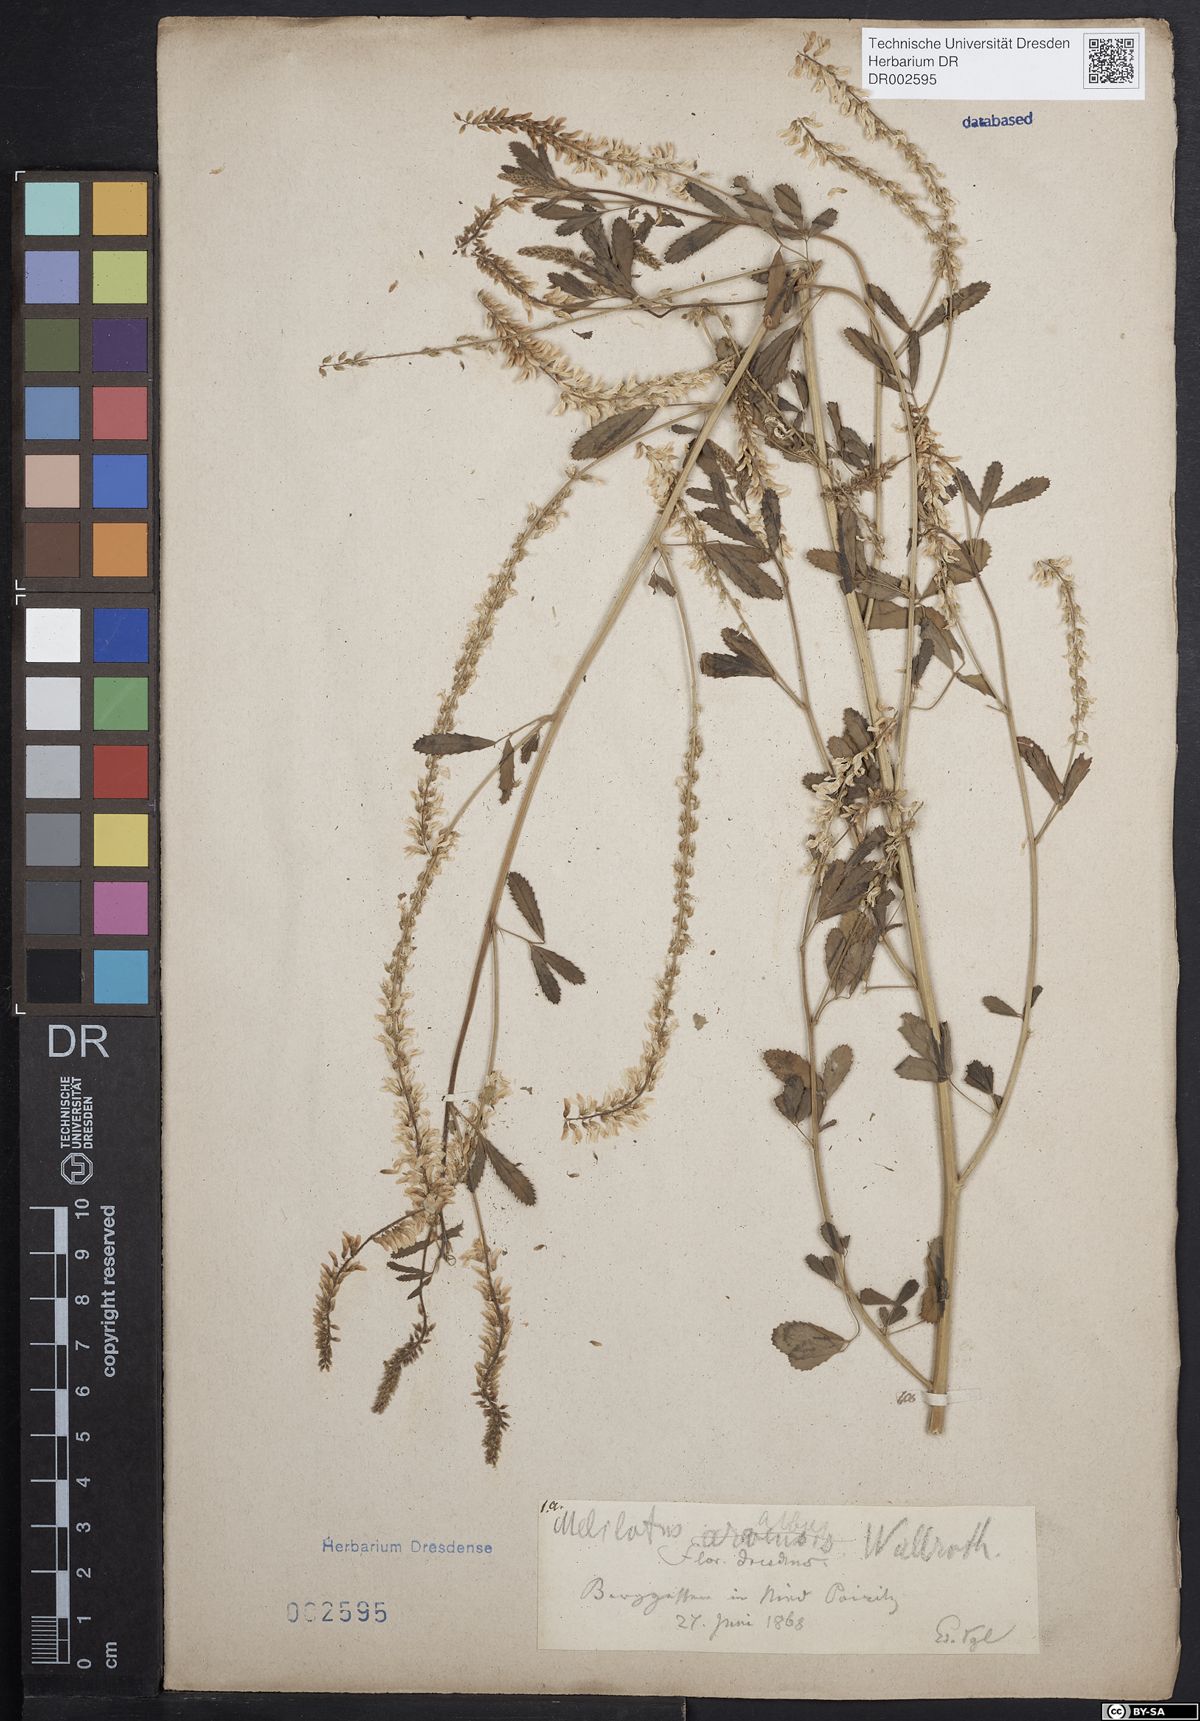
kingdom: Plantae
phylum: Tracheophyta
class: Magnoliopsida
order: Fabales
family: Fabaceae
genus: Melilotus
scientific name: Melilotus albus
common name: White melilot
